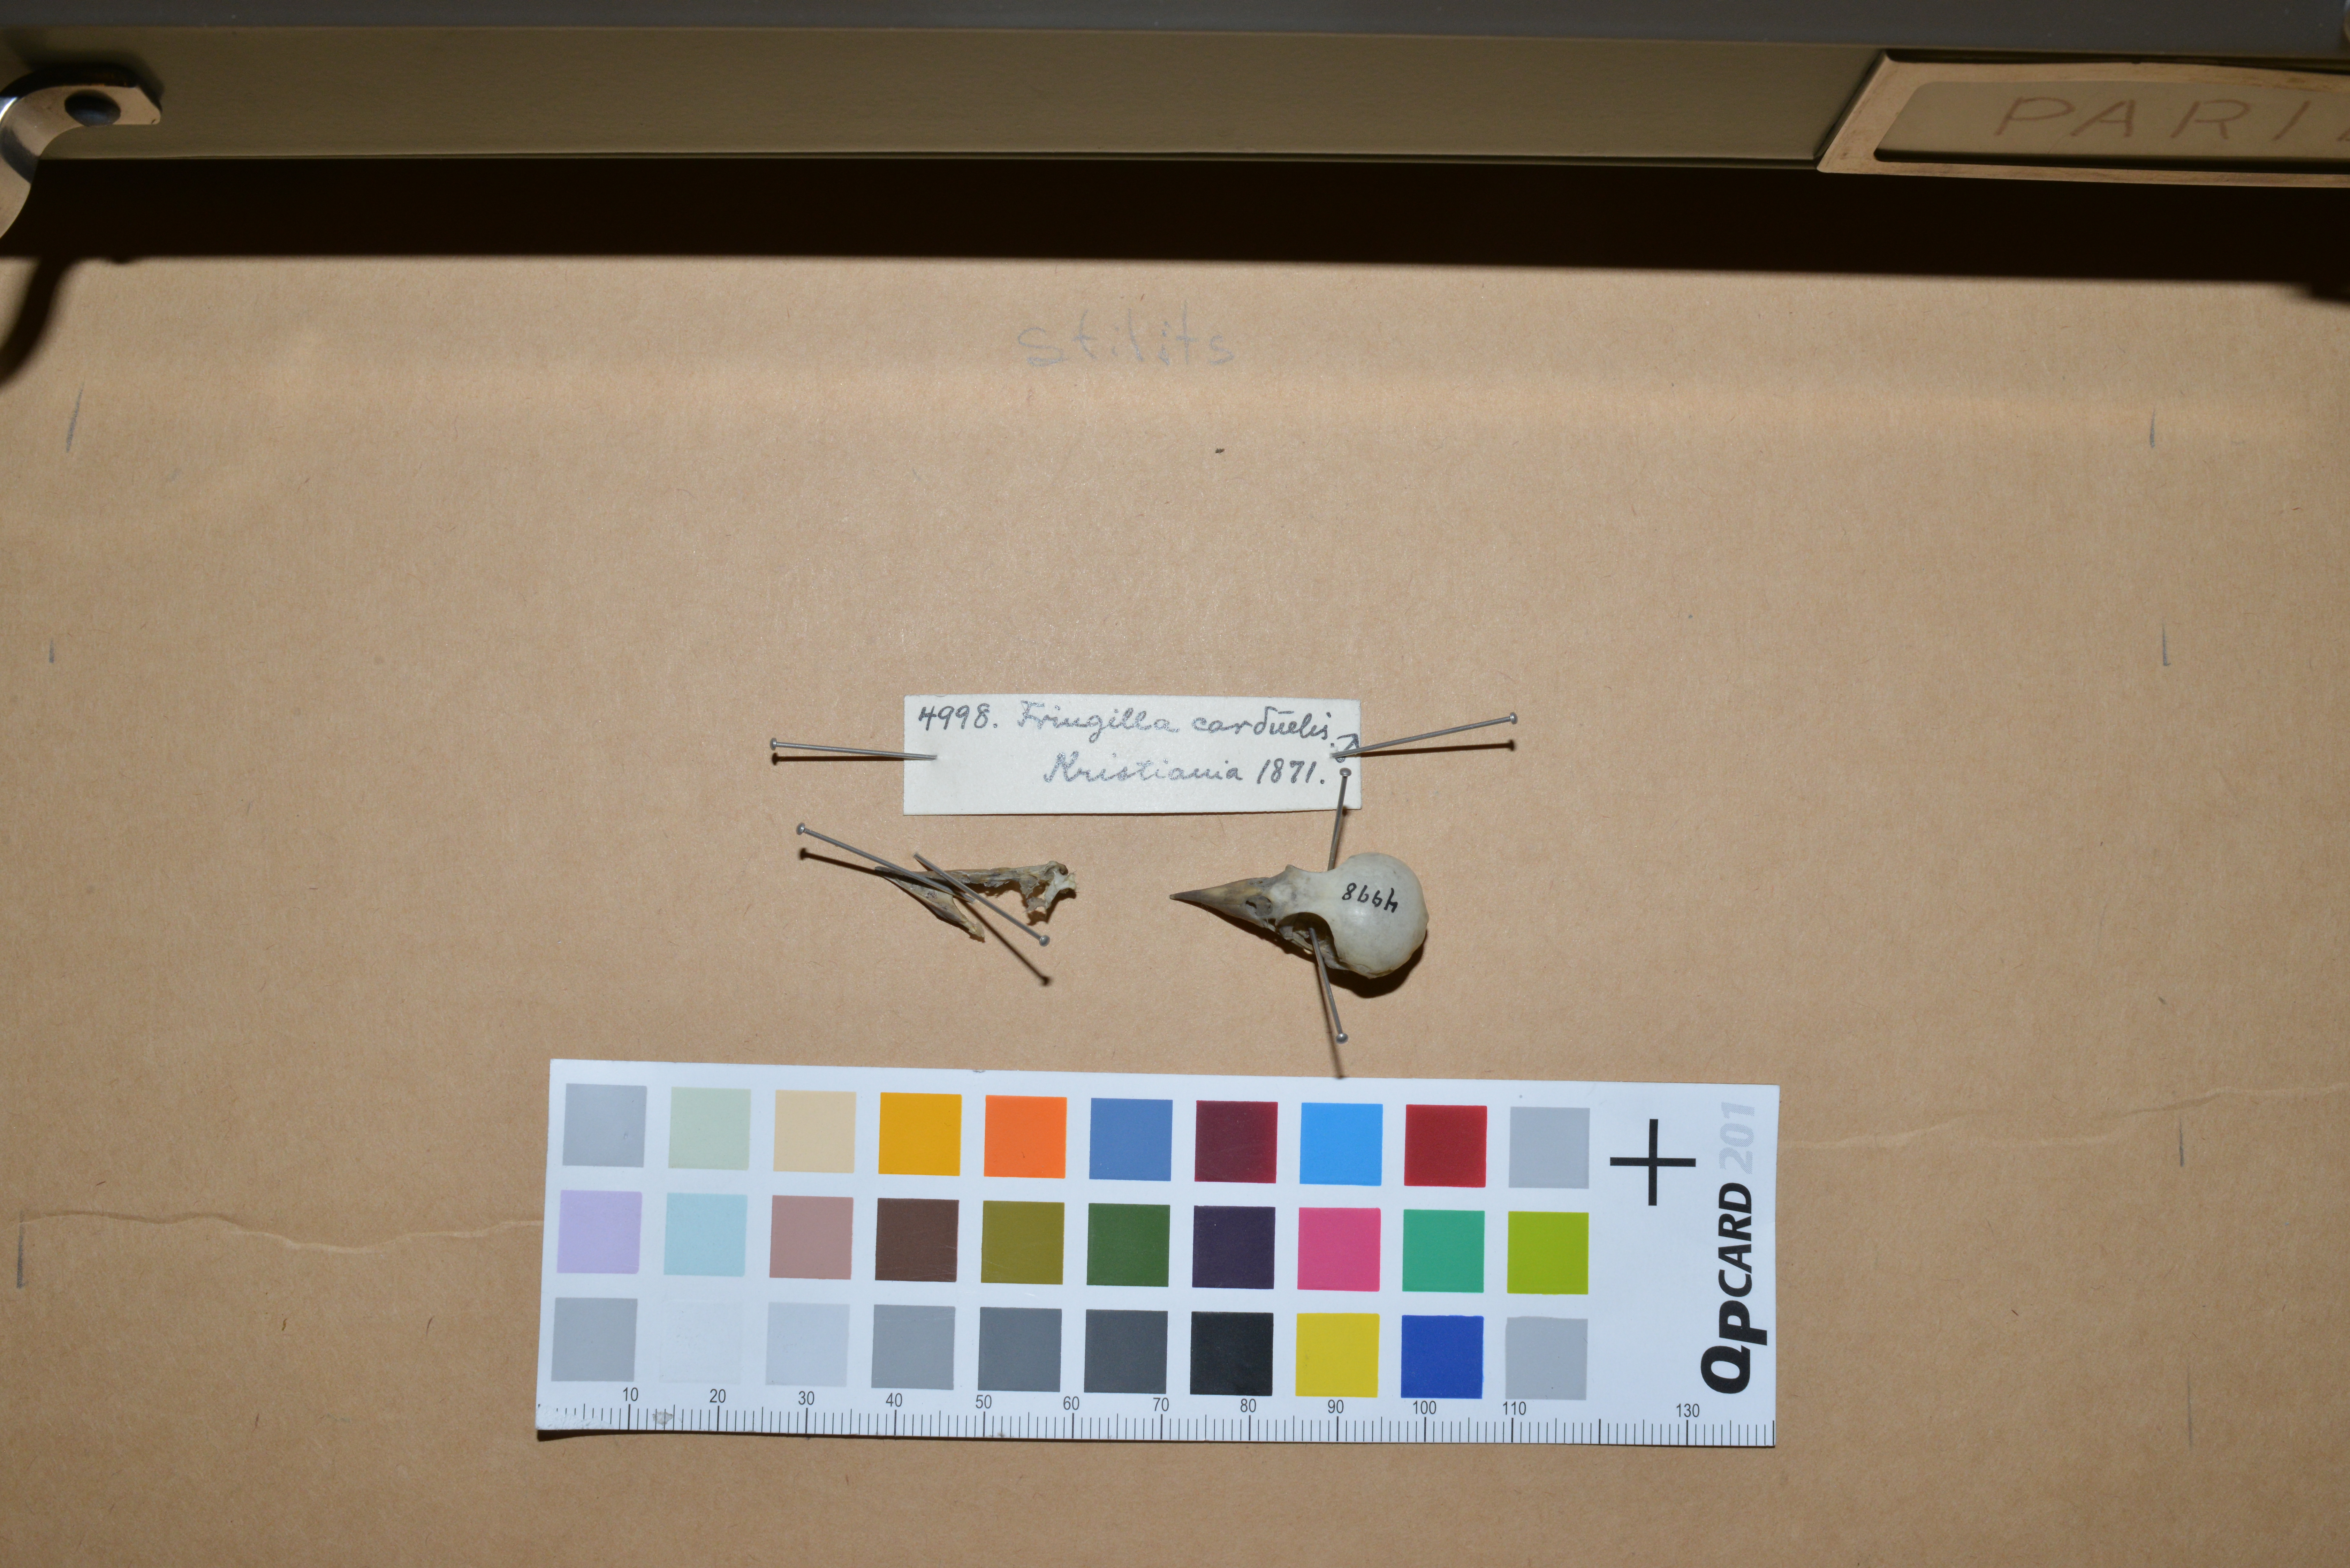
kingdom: Animalia
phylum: Chordata
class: Aves
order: Passeriformes
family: Fringillidae
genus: Carduelis
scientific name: Carduelis carduelis
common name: European goldfinch
